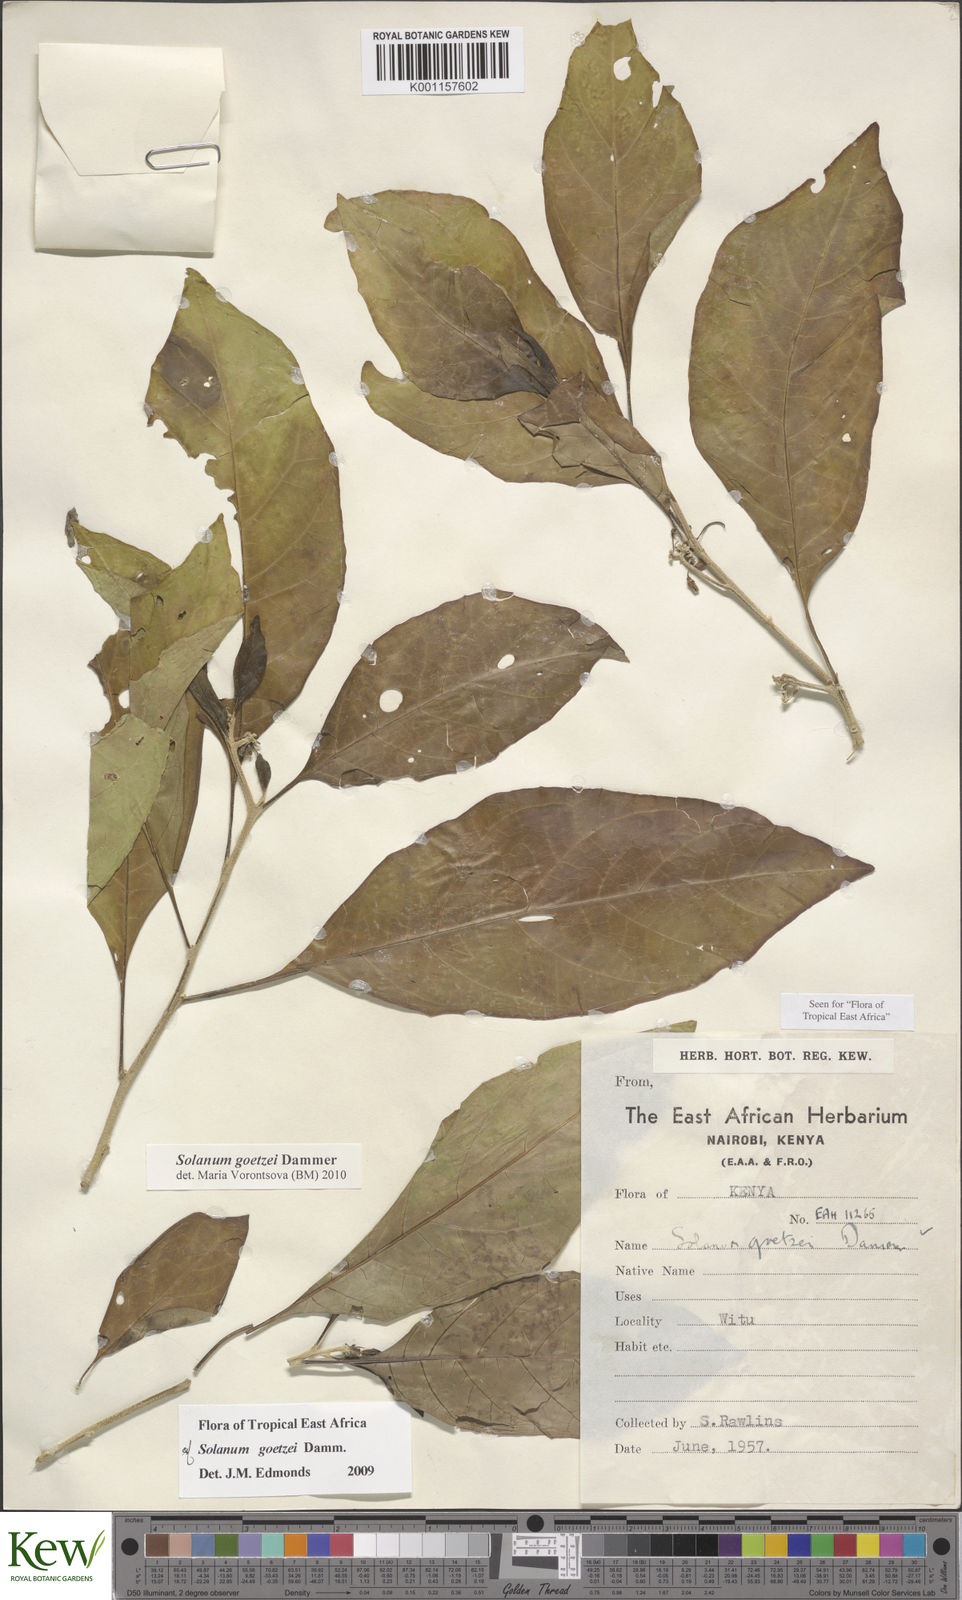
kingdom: Plantae
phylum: Tracheophyta
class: Magnoliopsida
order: Solanales
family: Solanaceae
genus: Solanum
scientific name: Solanum goetzei
